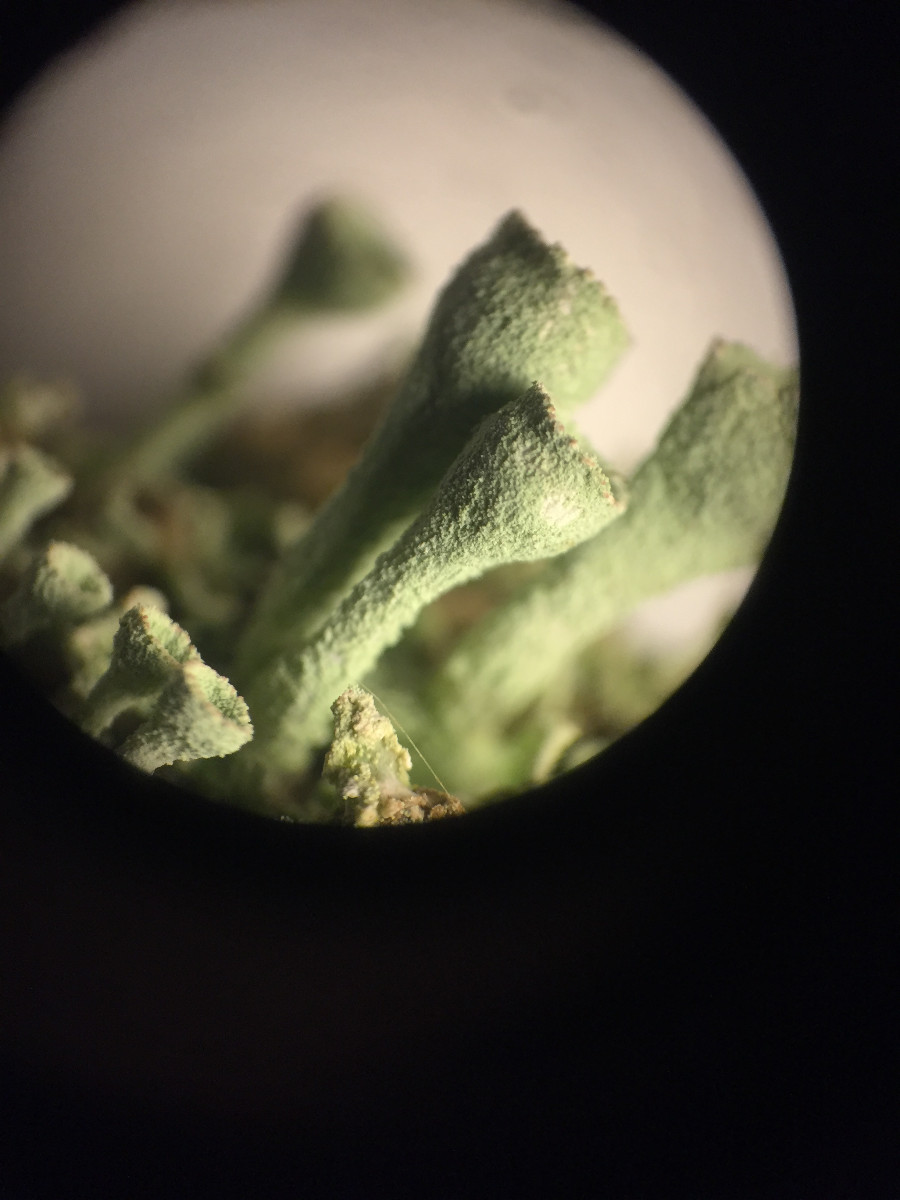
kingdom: Fungi
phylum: Ascomycota
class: Lecanoromycetes
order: Lecanorales
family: Cladoniaceae
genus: Cladonia
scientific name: Cladonia fimbriata
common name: bleggrøn bægerlav
